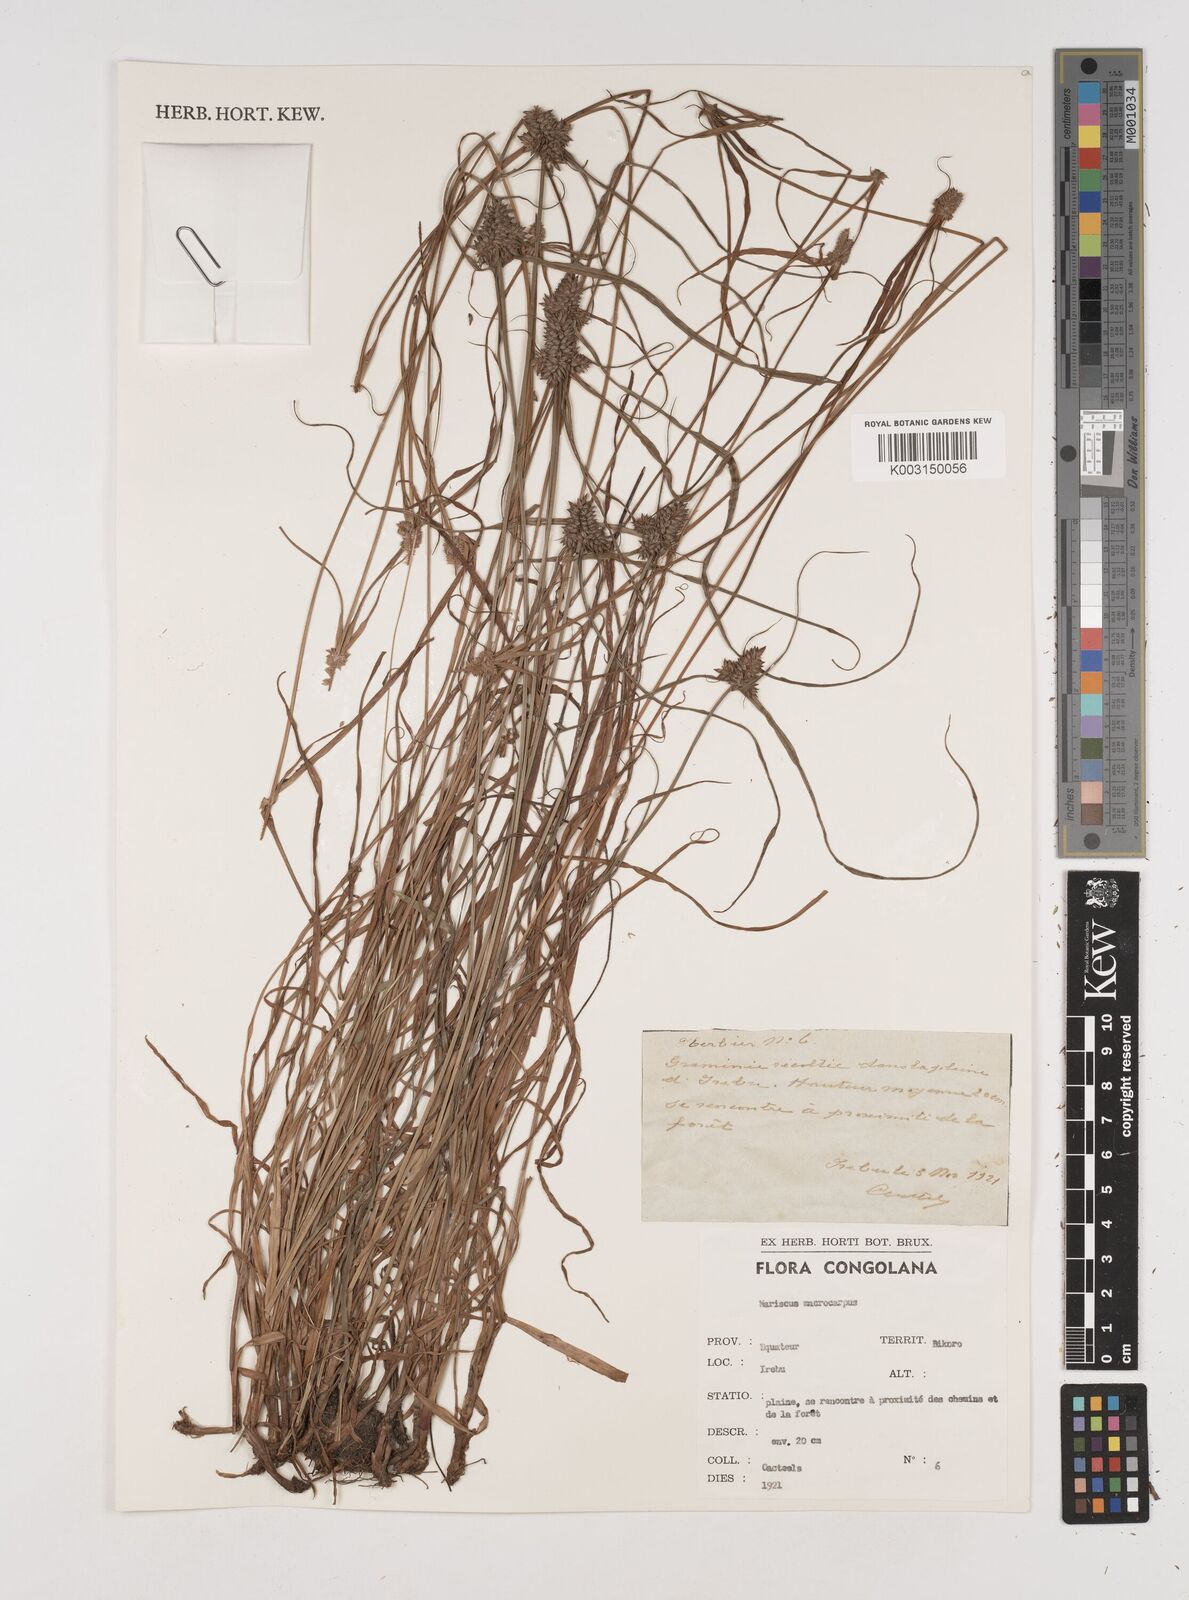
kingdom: Plantae
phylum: Tracheophyta
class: Liliopsida
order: Poales
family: Cyperaceae
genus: Cyperus
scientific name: Cyperus macrocarpus
